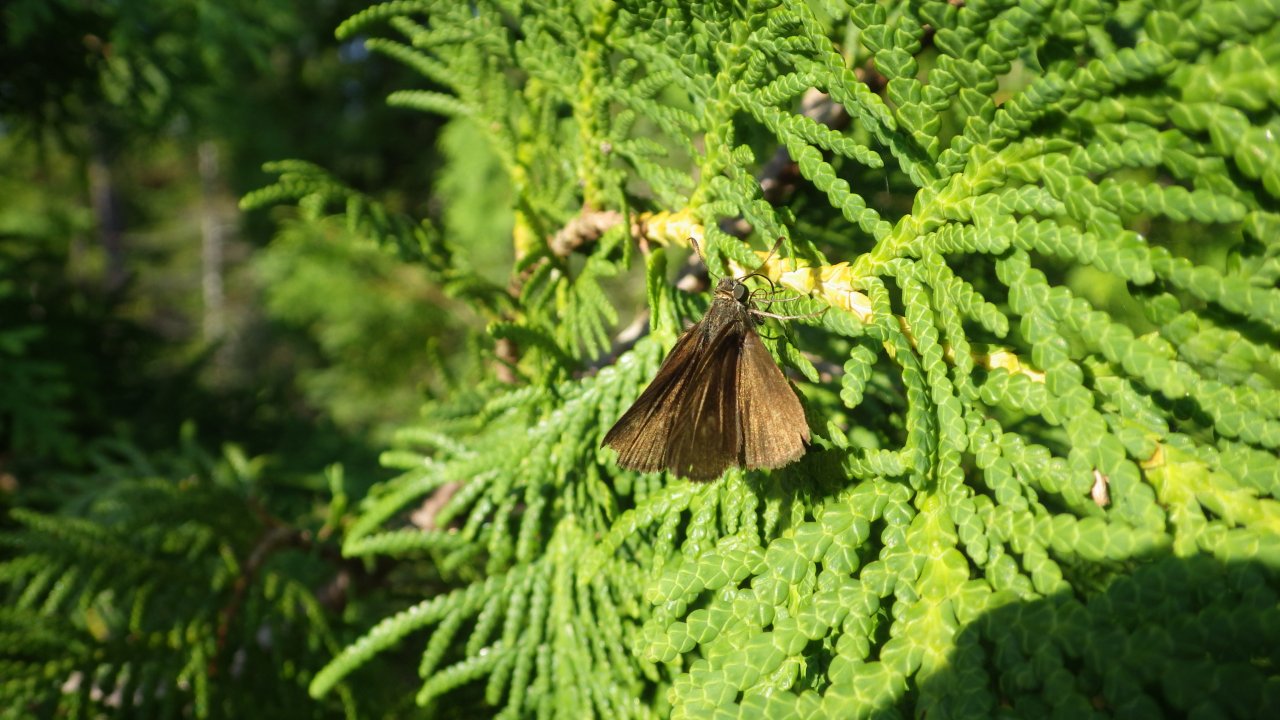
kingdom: Animalia
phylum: Arthropoda
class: Insecta
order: Lepidoptera
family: Hesperiidae
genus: Euphyes
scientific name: Euphyes vestris
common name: Dun Skipper
